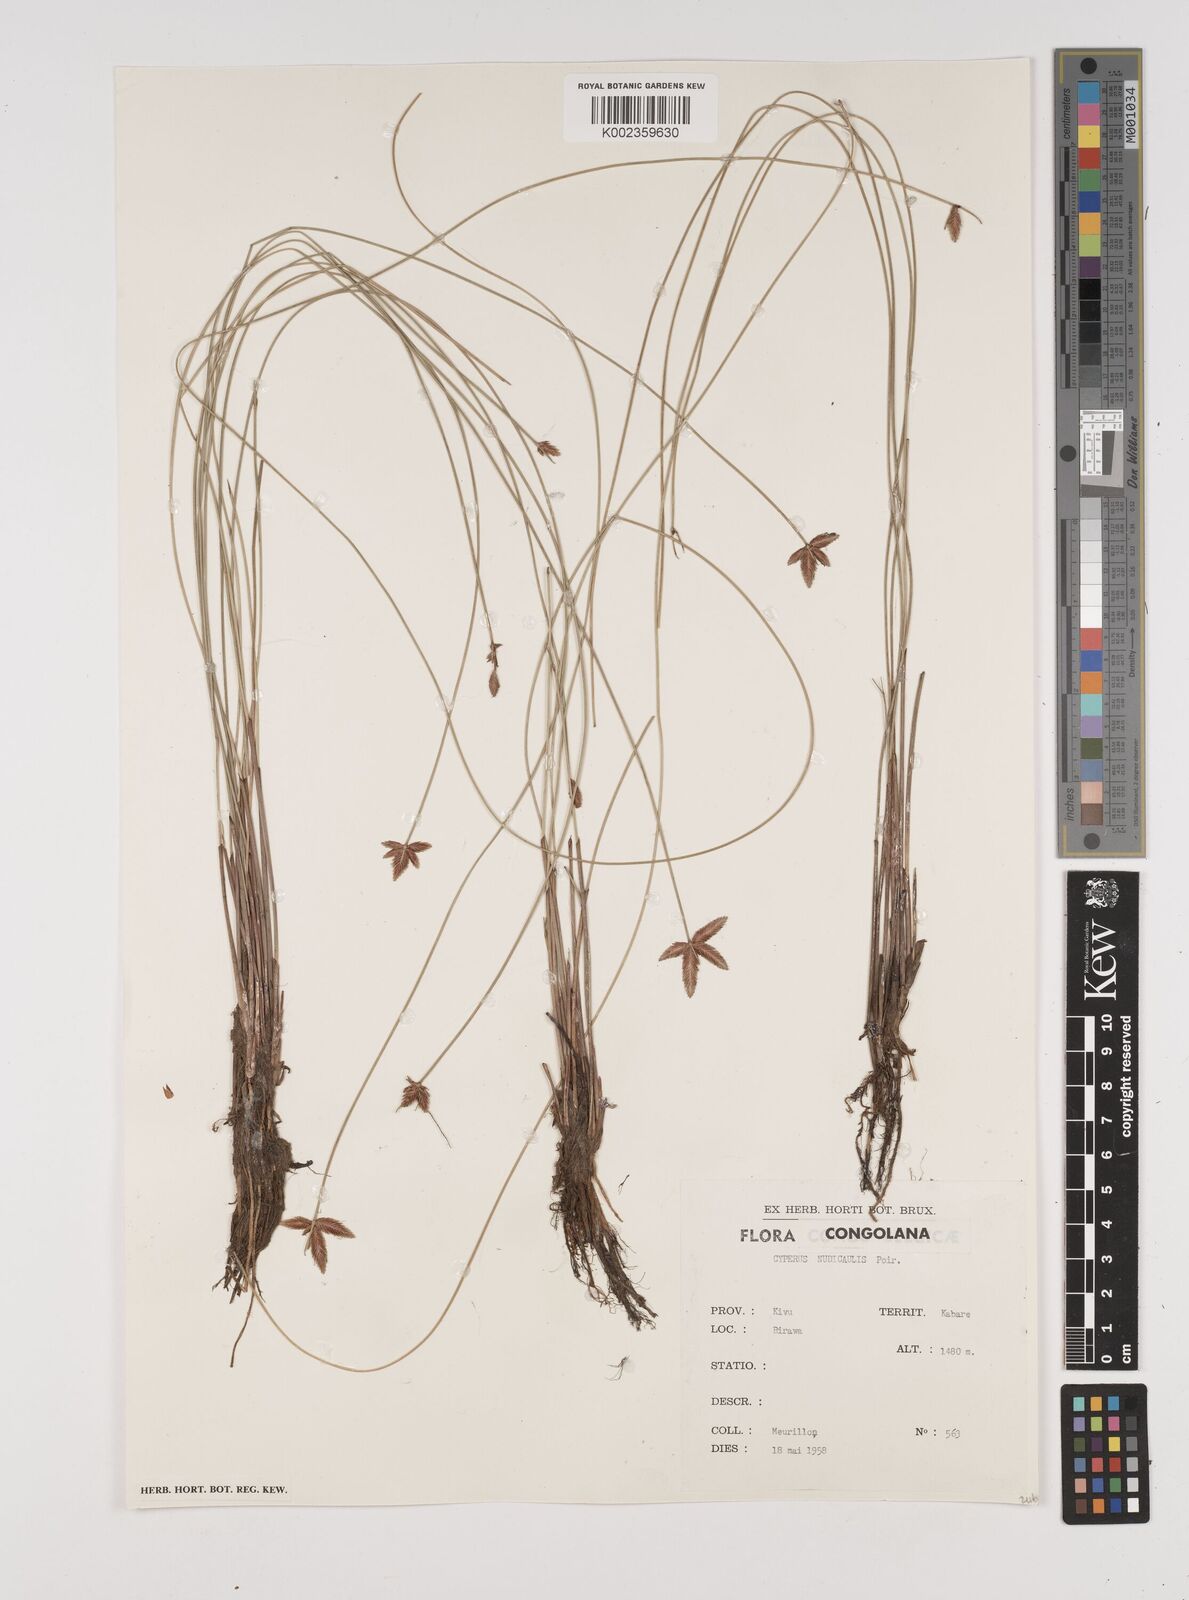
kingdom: Plantae
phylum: Tracheophyta
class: Liliopsida
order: Poales
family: Cyperaceae
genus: Cyperus
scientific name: Cyperus pectinatus
